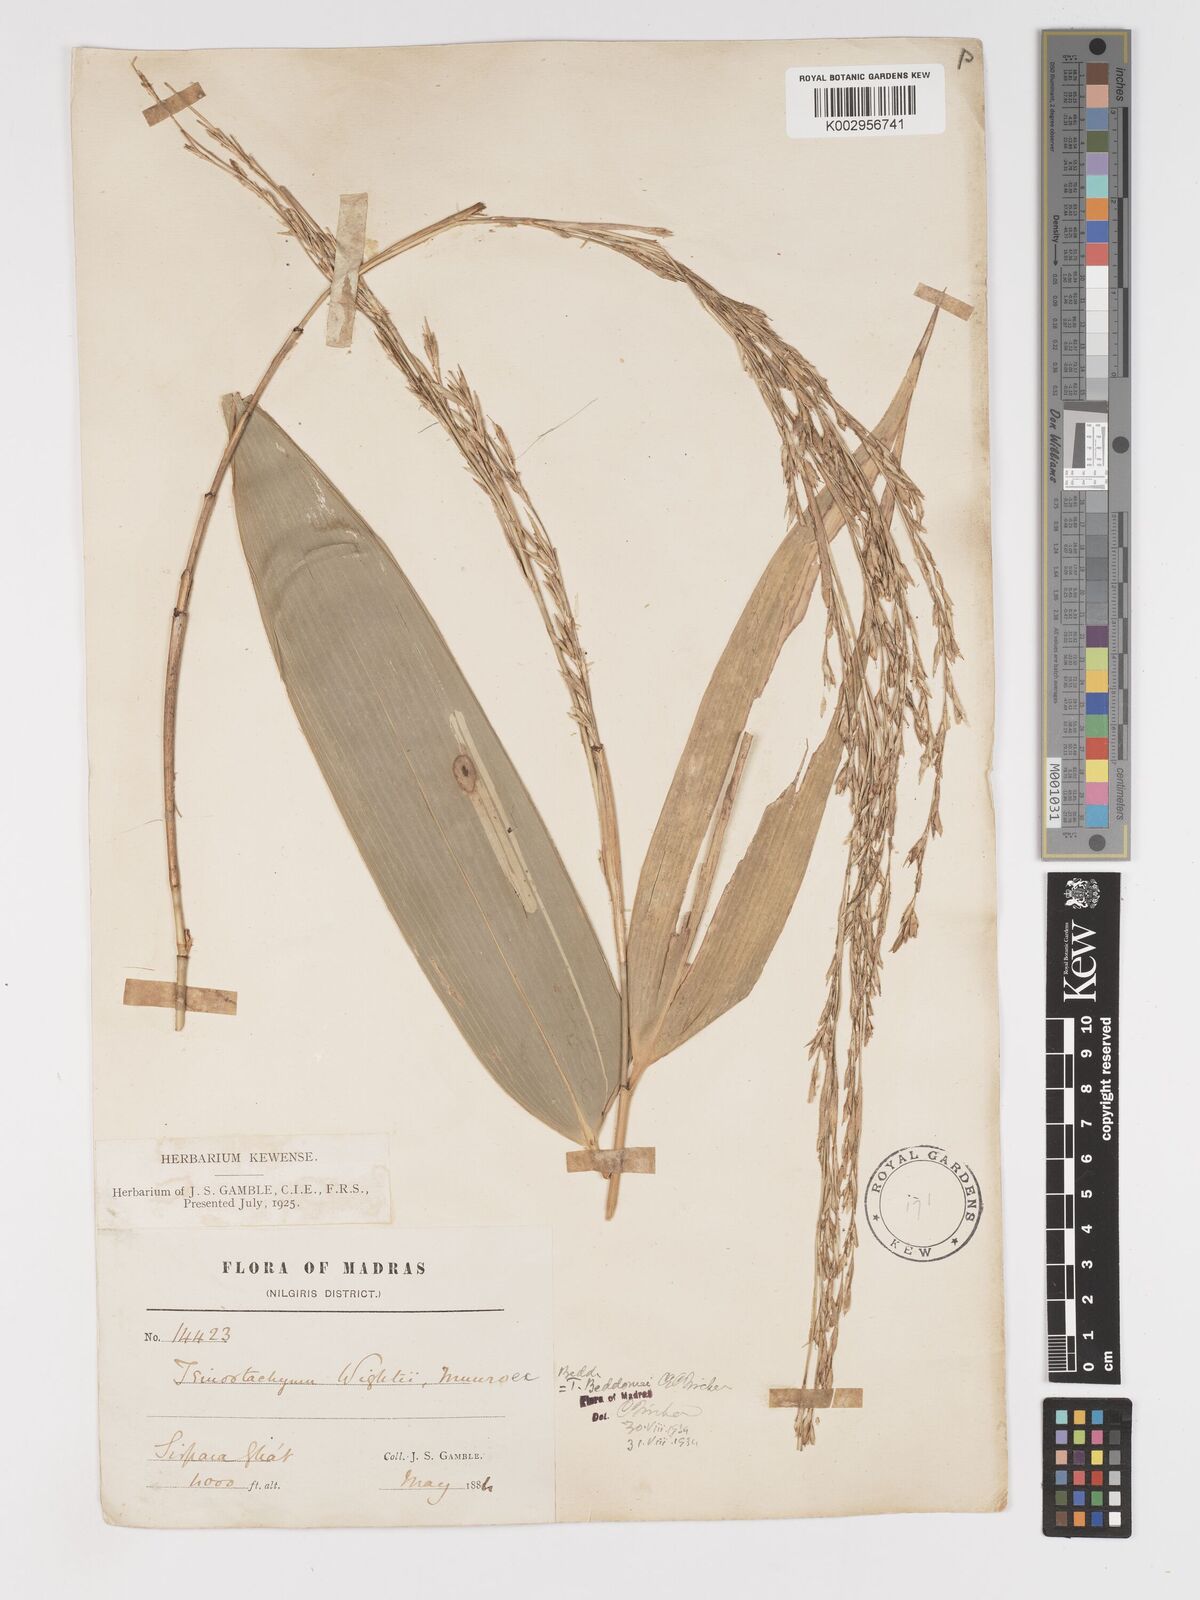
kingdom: Plantae
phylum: Tracheophyta
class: Liliopsida
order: Poales
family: Poaceae
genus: Ochlandra
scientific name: Ochlandra wightii
